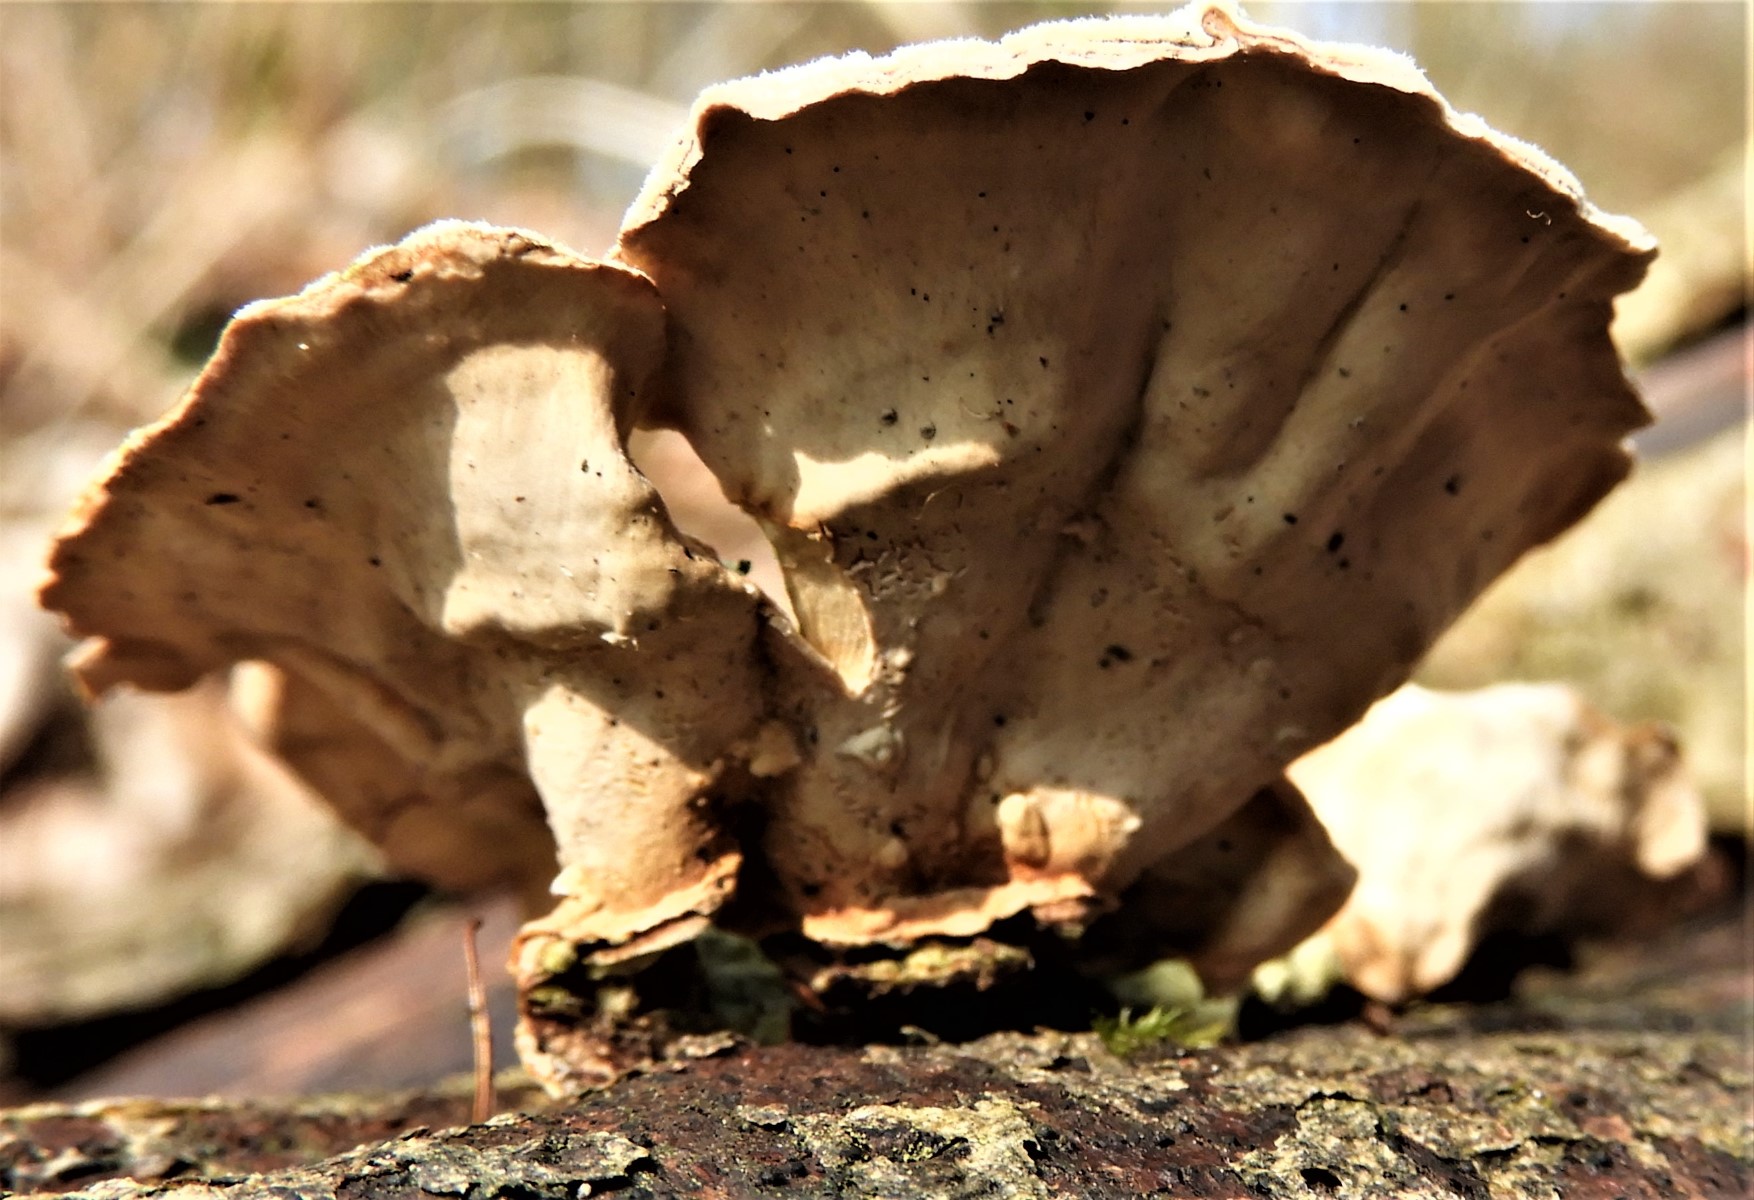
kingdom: Fungi
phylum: Basidiomycota
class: Agaricomycetes
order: Russulales
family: Stereaceae
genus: Stereum
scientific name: Stereum hirsutum
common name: håret lædersvamp
